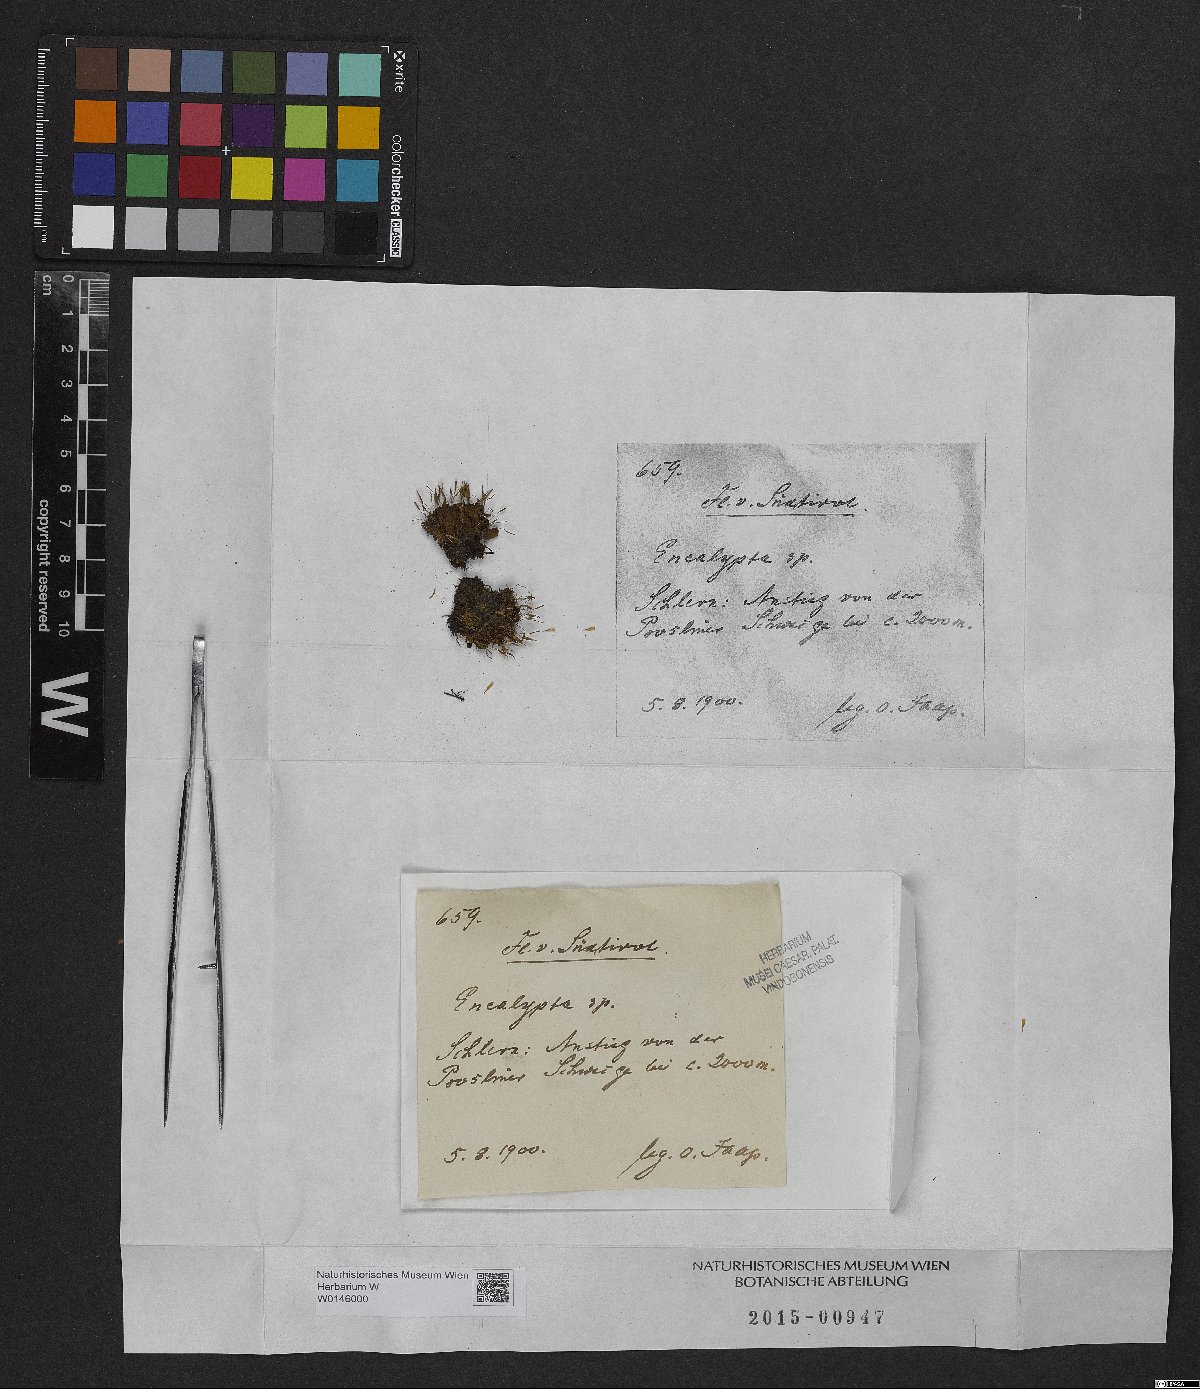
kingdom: Plantae
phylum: Bryophyta
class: Bryopsida
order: Encalyptales
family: Encalyptaceae
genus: Encalypta
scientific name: Encalypta
